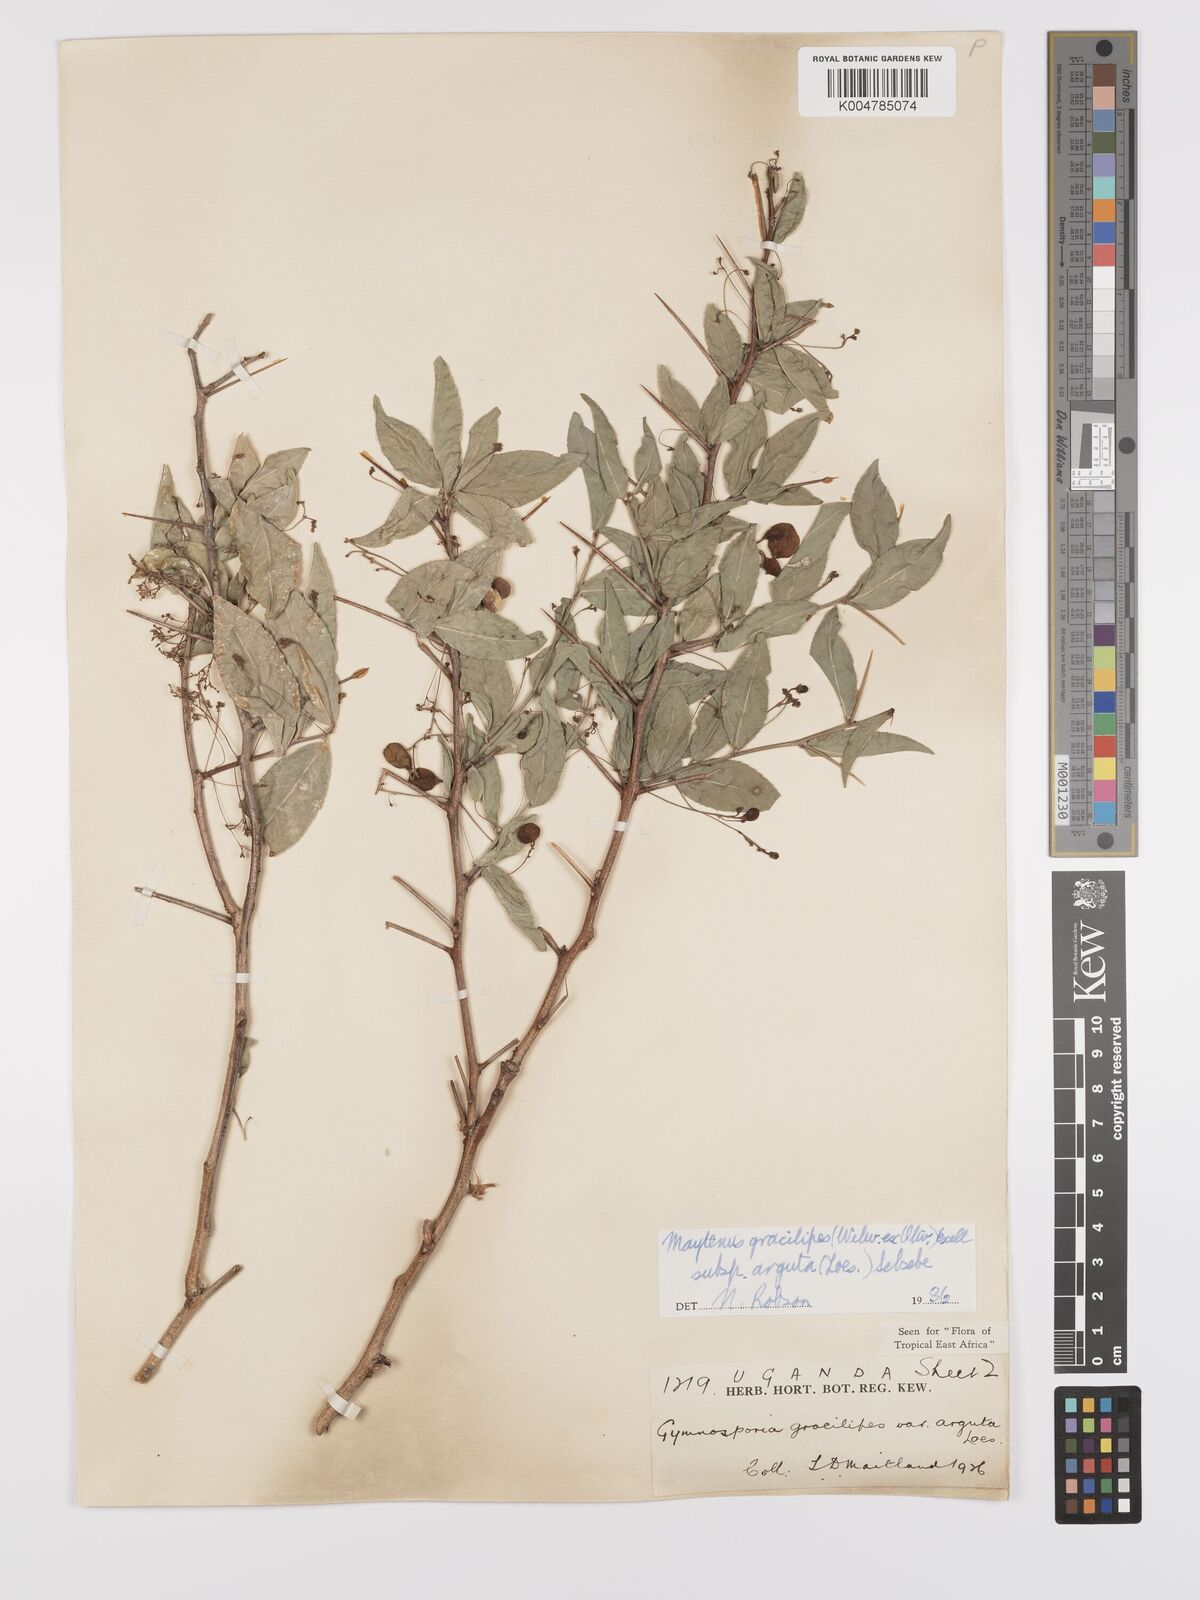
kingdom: Plantae
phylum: Tracheophyta
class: Magnoliopsida
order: Celastrales
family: Celastraceae
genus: Gymnosporia
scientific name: Gymnosporia gracilipes
